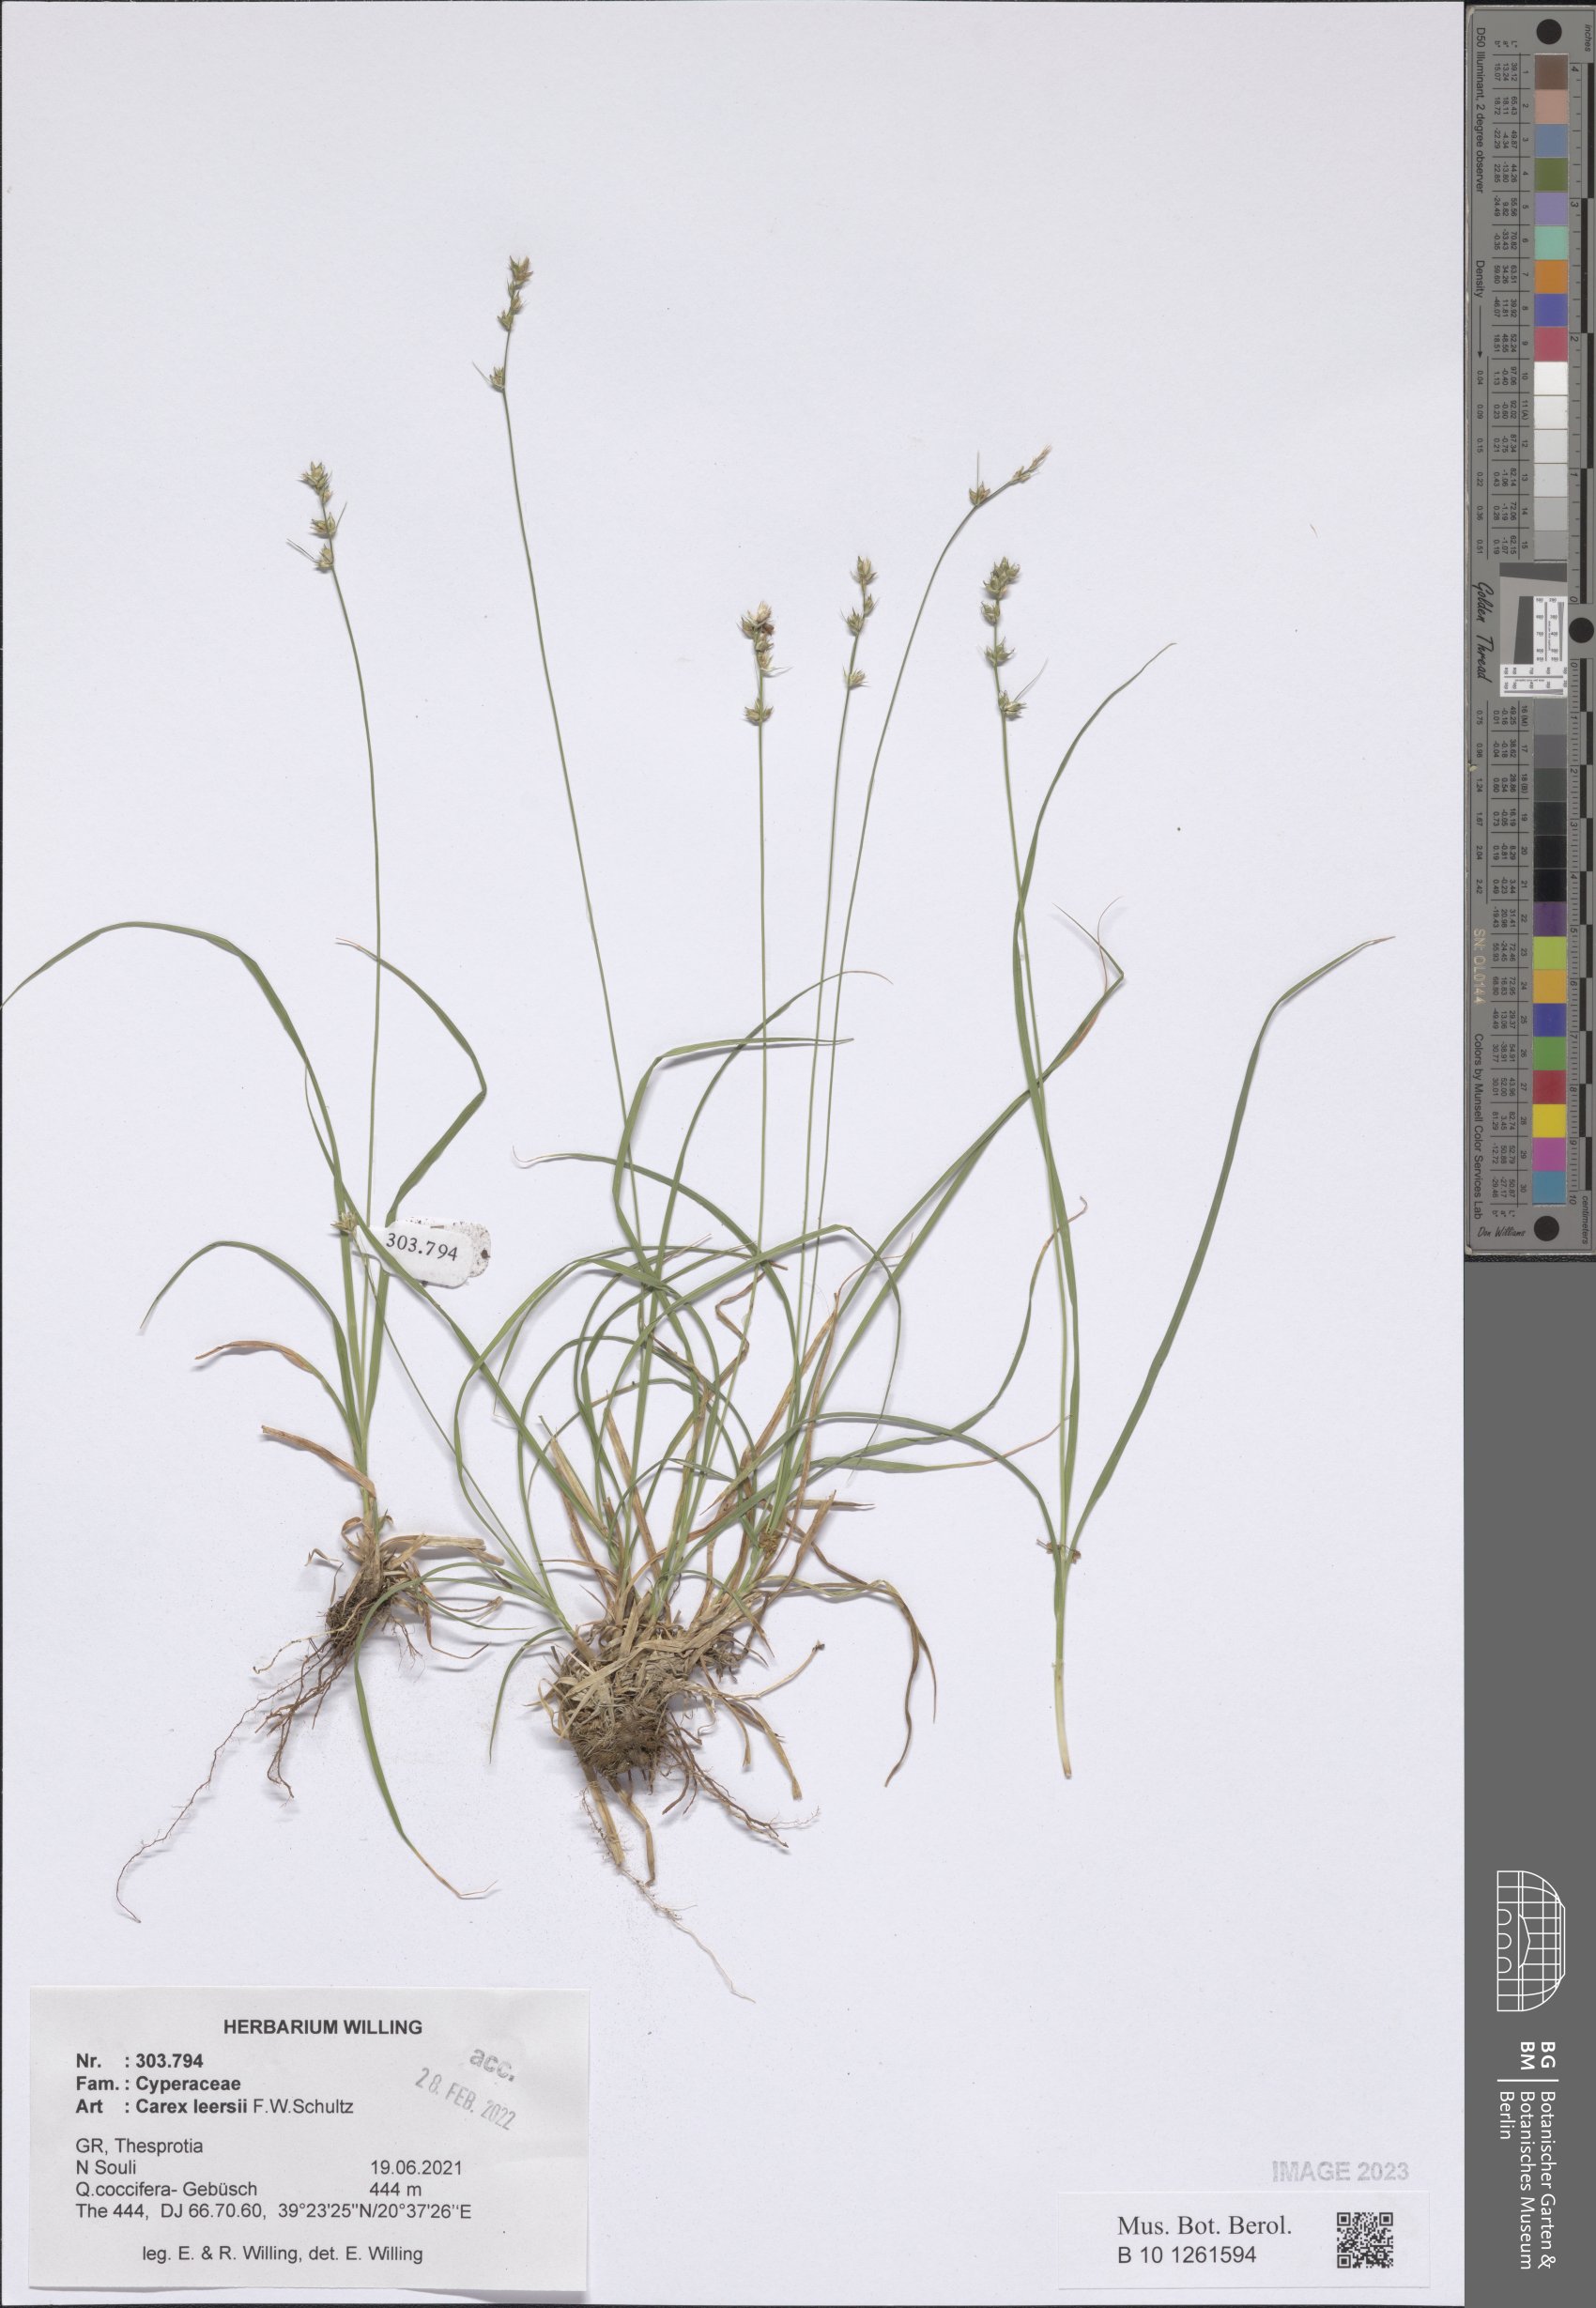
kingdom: Plantae
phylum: Tracheophyta
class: Liliopsida
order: Poales
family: Cyperaceae
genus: Carex
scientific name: Carex leersii
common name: Leers' sedge
